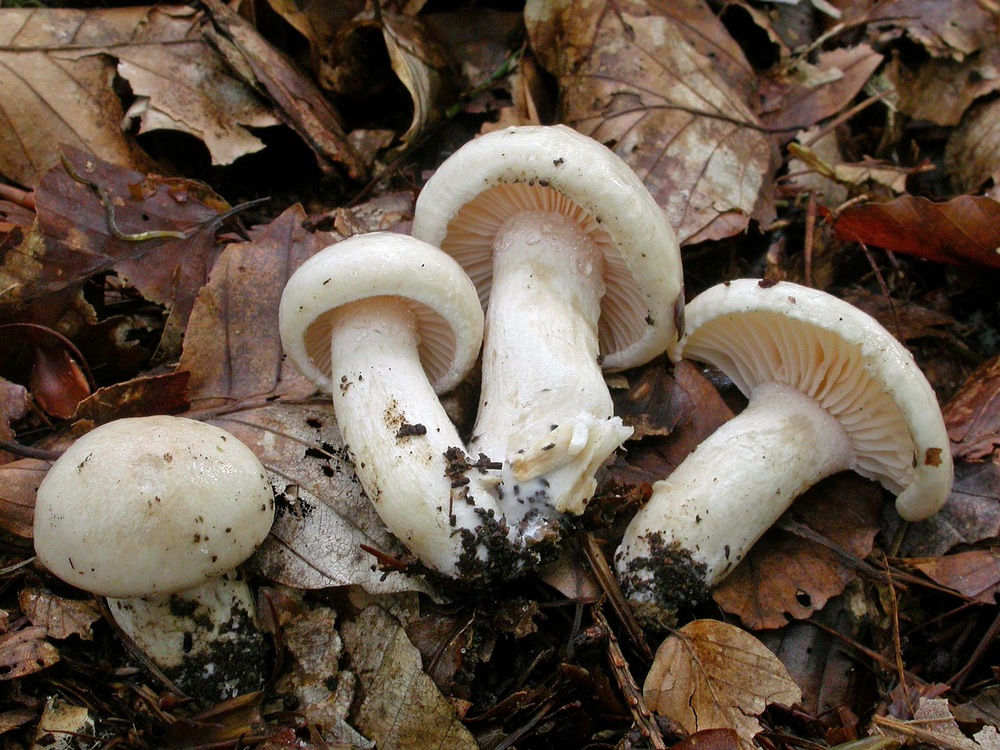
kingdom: Fungi
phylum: Basidiomycota
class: Agaricomycetes
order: Agaricales
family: Hygrophoraceae
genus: Hygrophorus
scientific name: Hygrophorus penarius
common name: spiselig sneglehat
